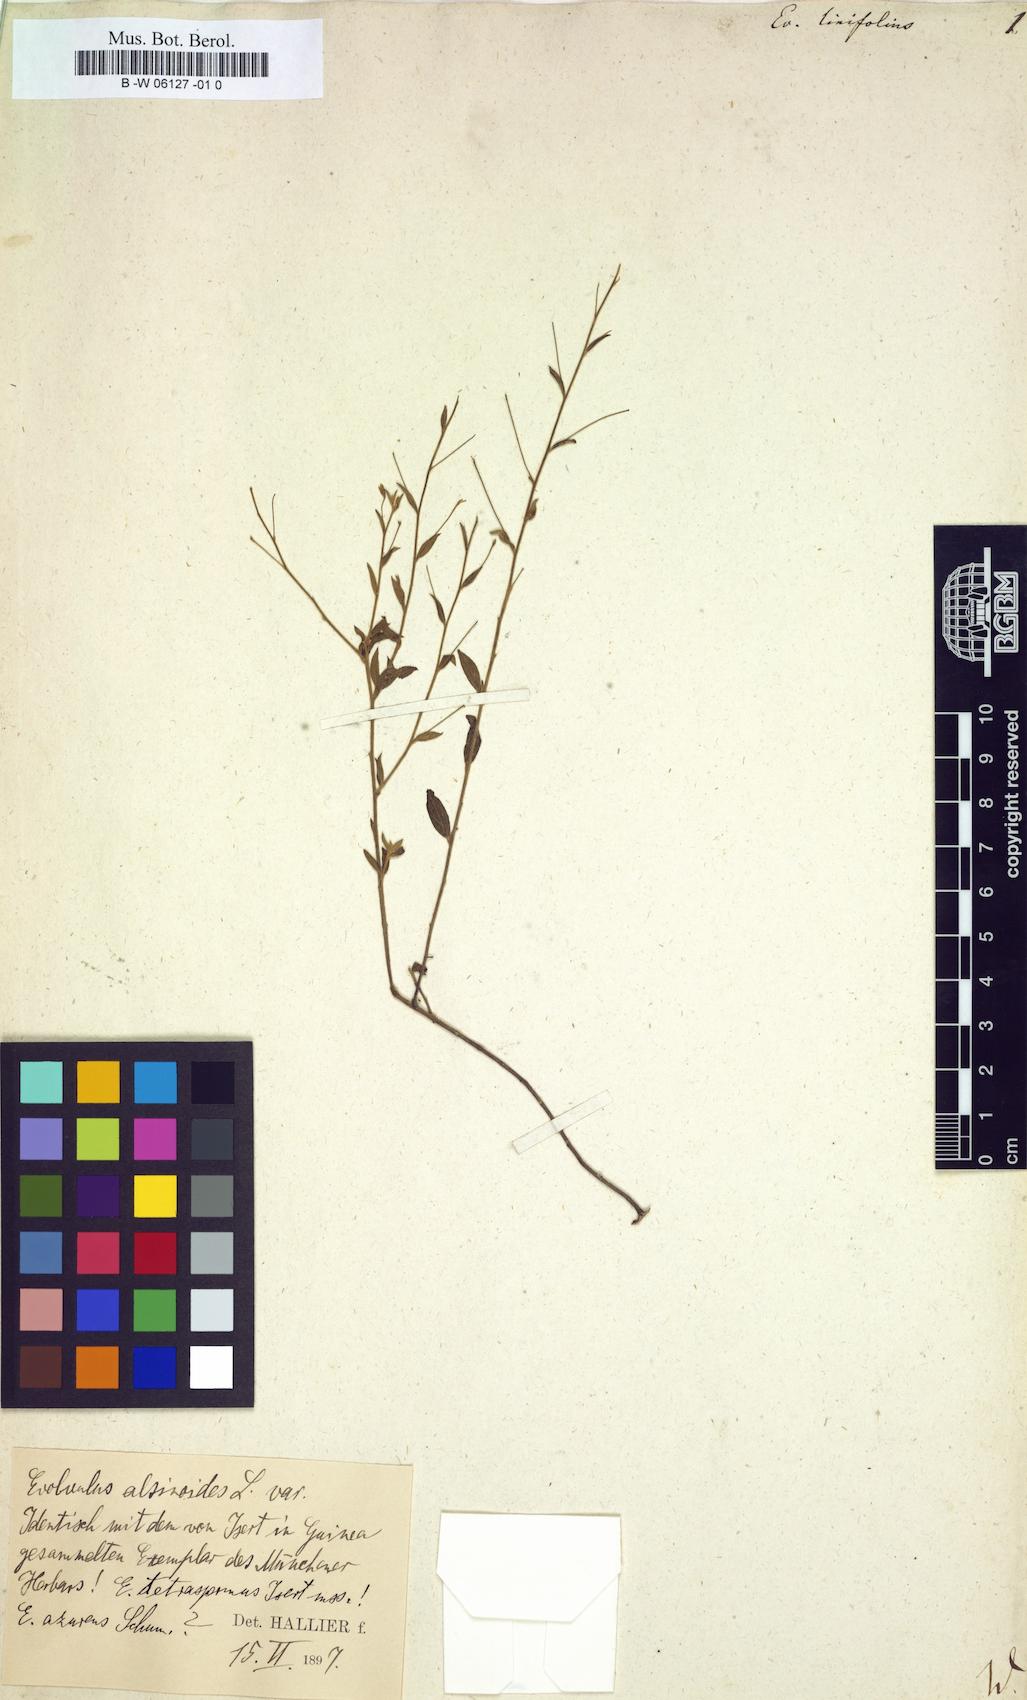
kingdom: Plantae
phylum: Tracheophyta
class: Magnoliopsida
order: Solanales
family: Convolvulaceae
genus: Evolvulus
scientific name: Evolvulus
